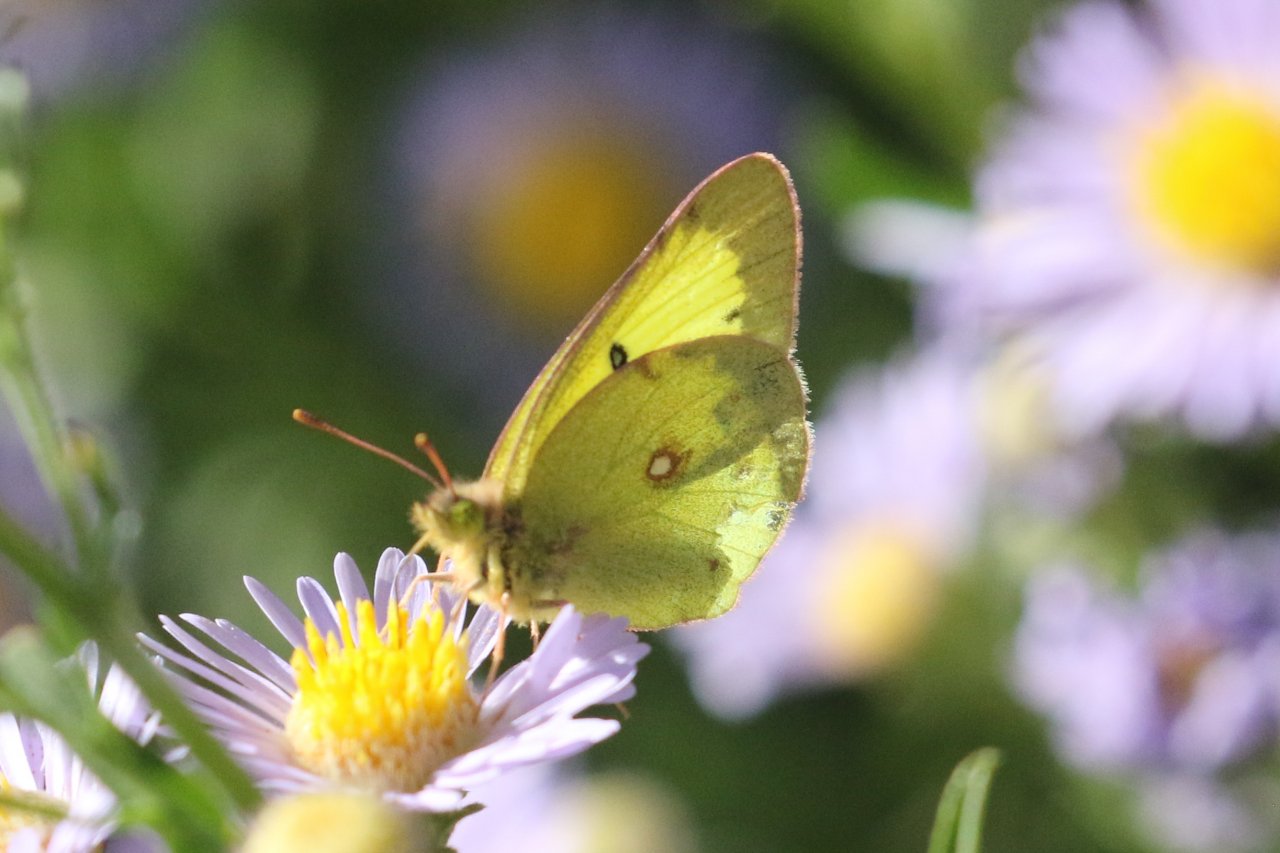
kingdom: Animalia
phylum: Arthropoda
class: Insecta
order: Lepidoptera
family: Pieridae
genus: Colias
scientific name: Colias philodice
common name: Clouded Sulphur
